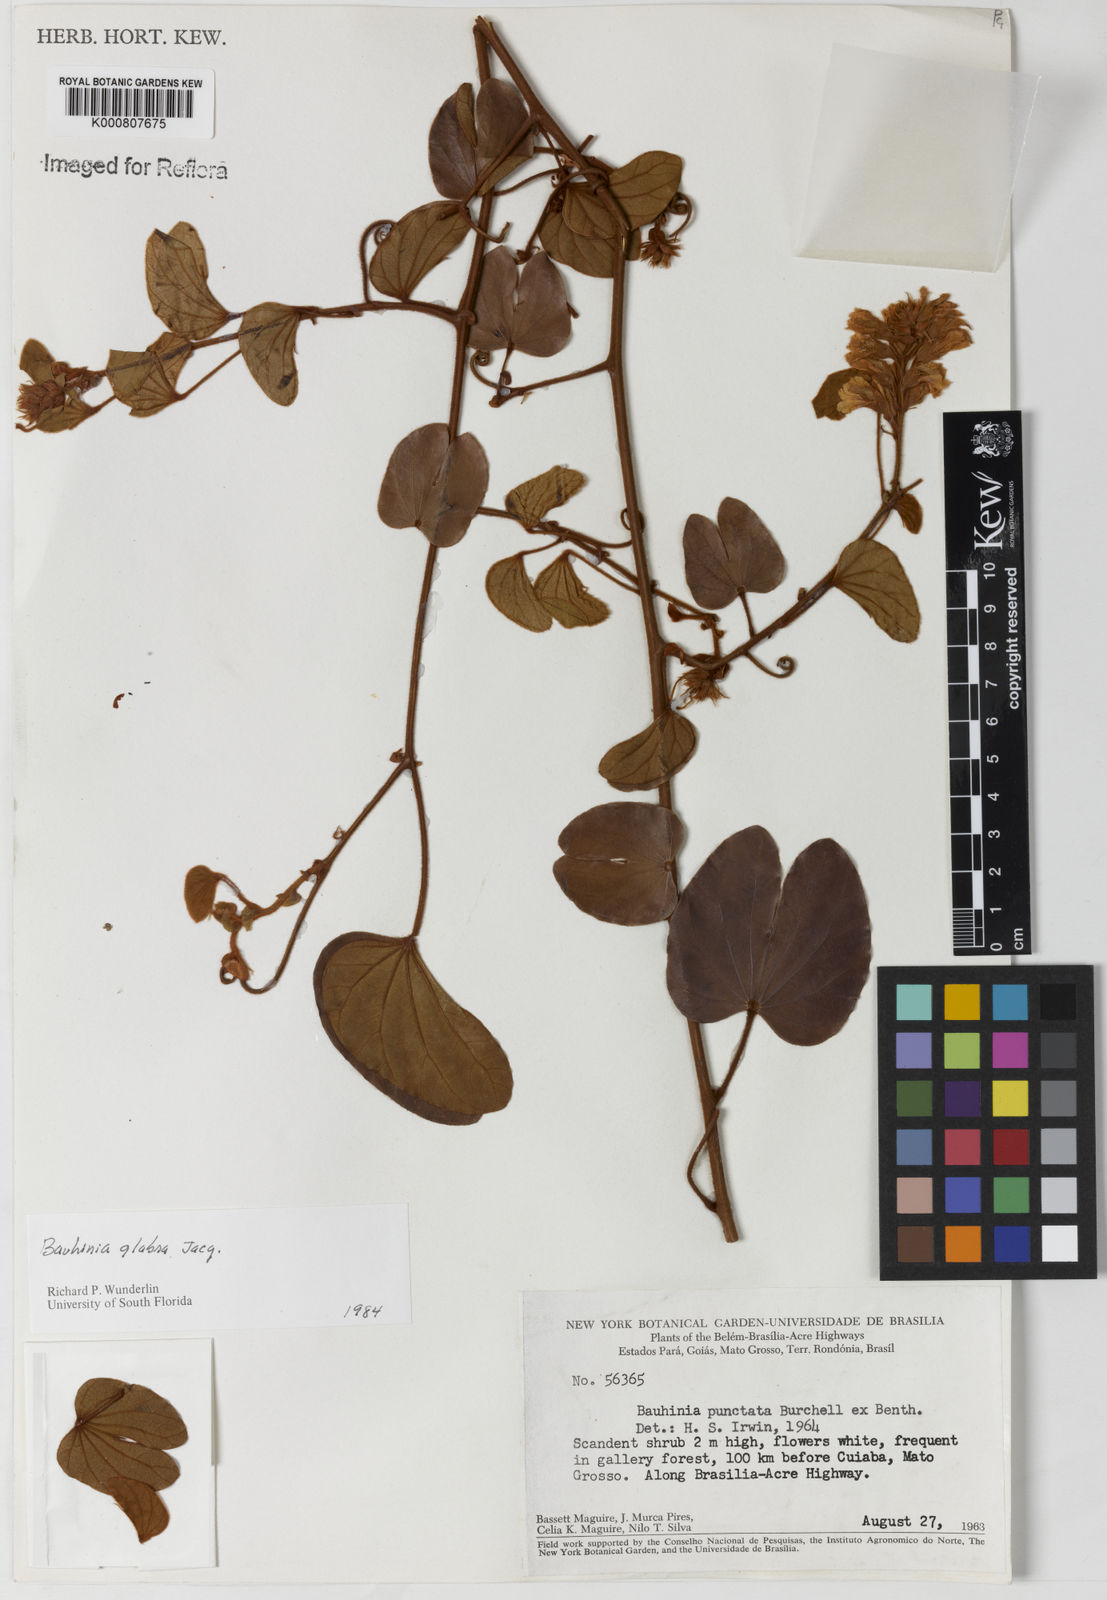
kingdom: Plantae
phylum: Tracheophyta
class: Magnoliopsida
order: Fabales
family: Fabaceae
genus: Schnella
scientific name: Schnella glabra
